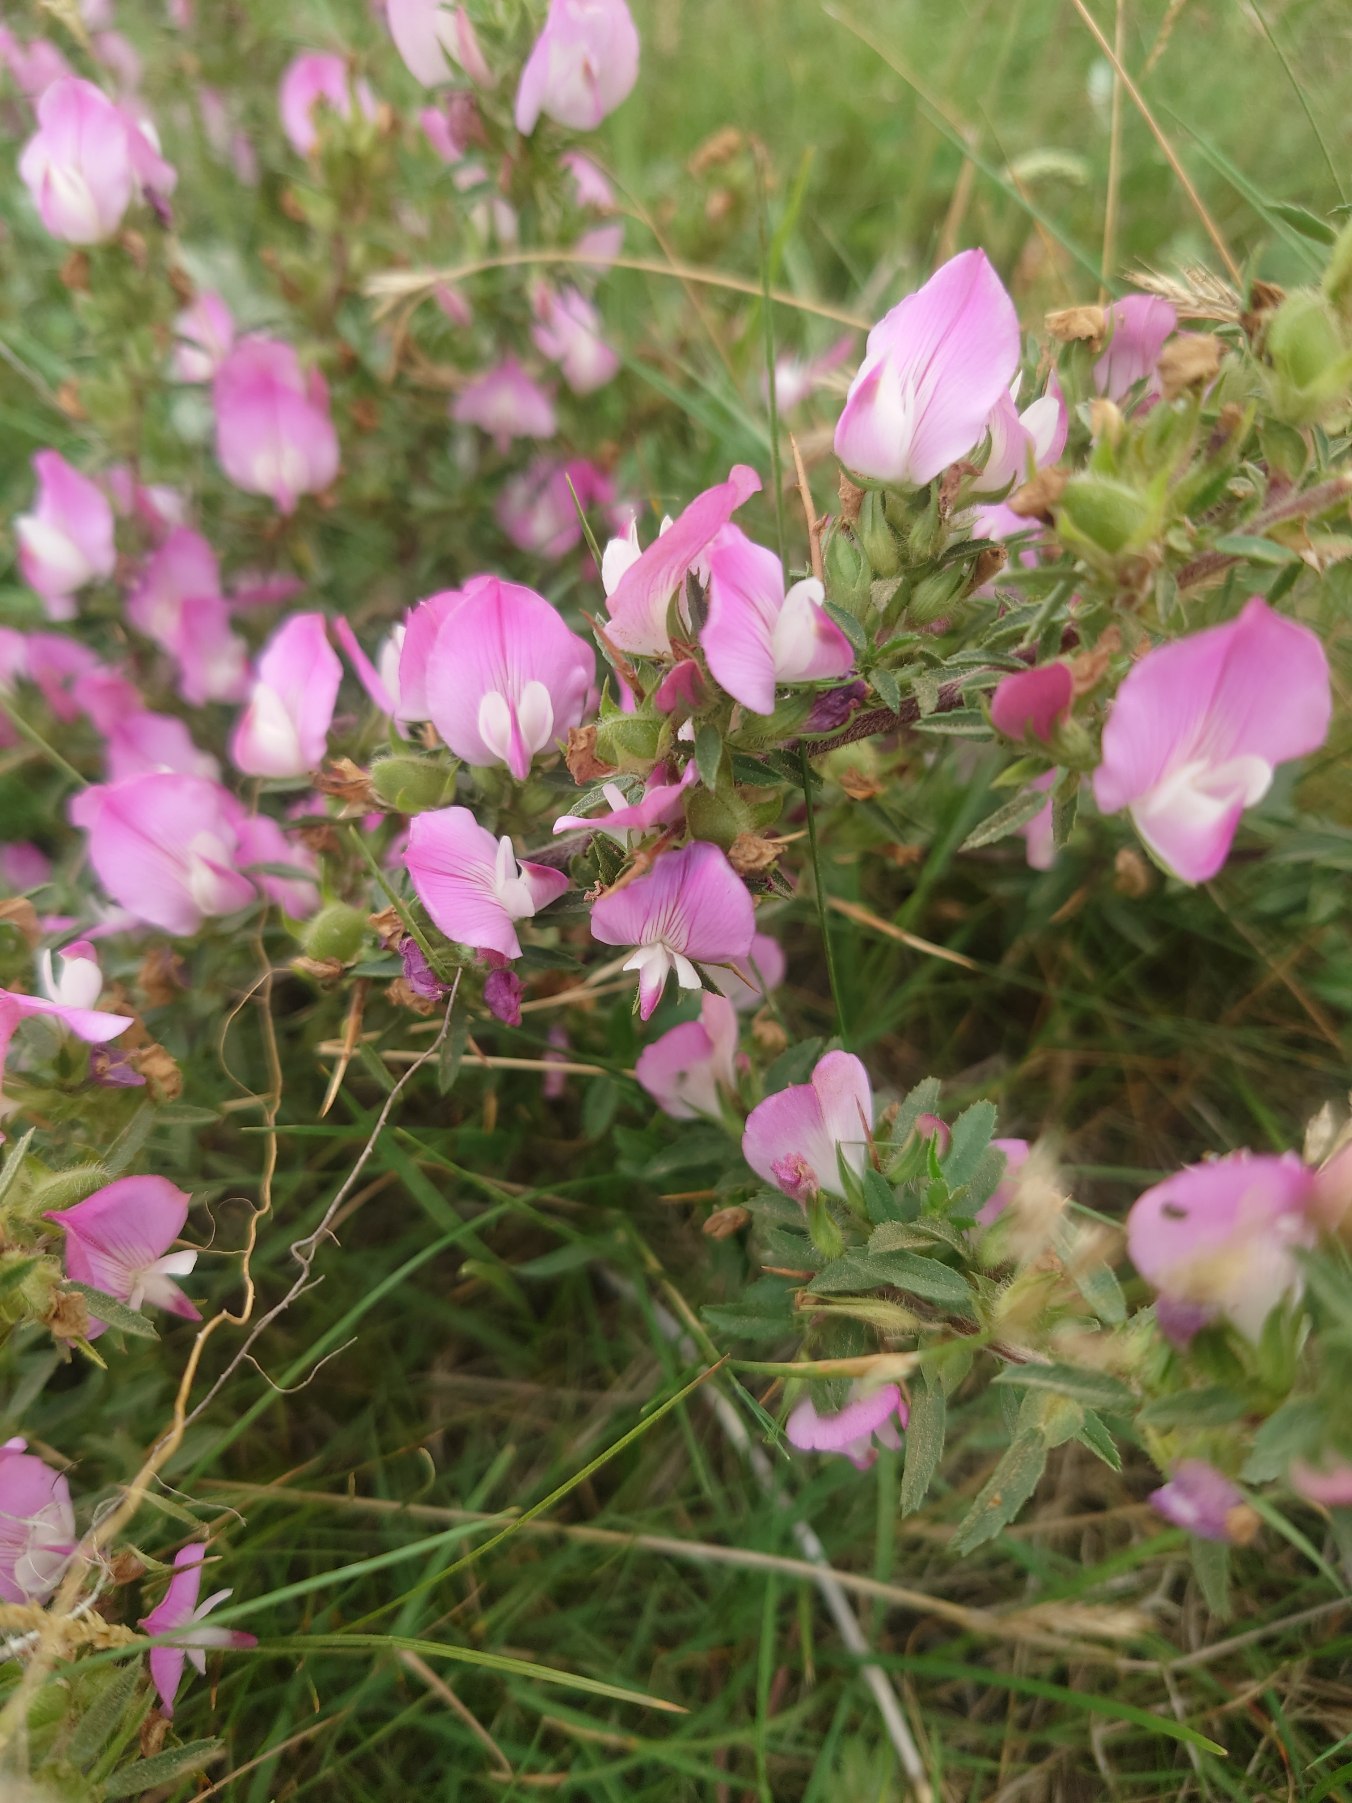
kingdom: Plantae
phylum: Tracheophyta
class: Magnoliopsida
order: Fabales
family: Fabaceae
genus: Ononis
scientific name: Ononis spinosa
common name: Strand-krageklo
